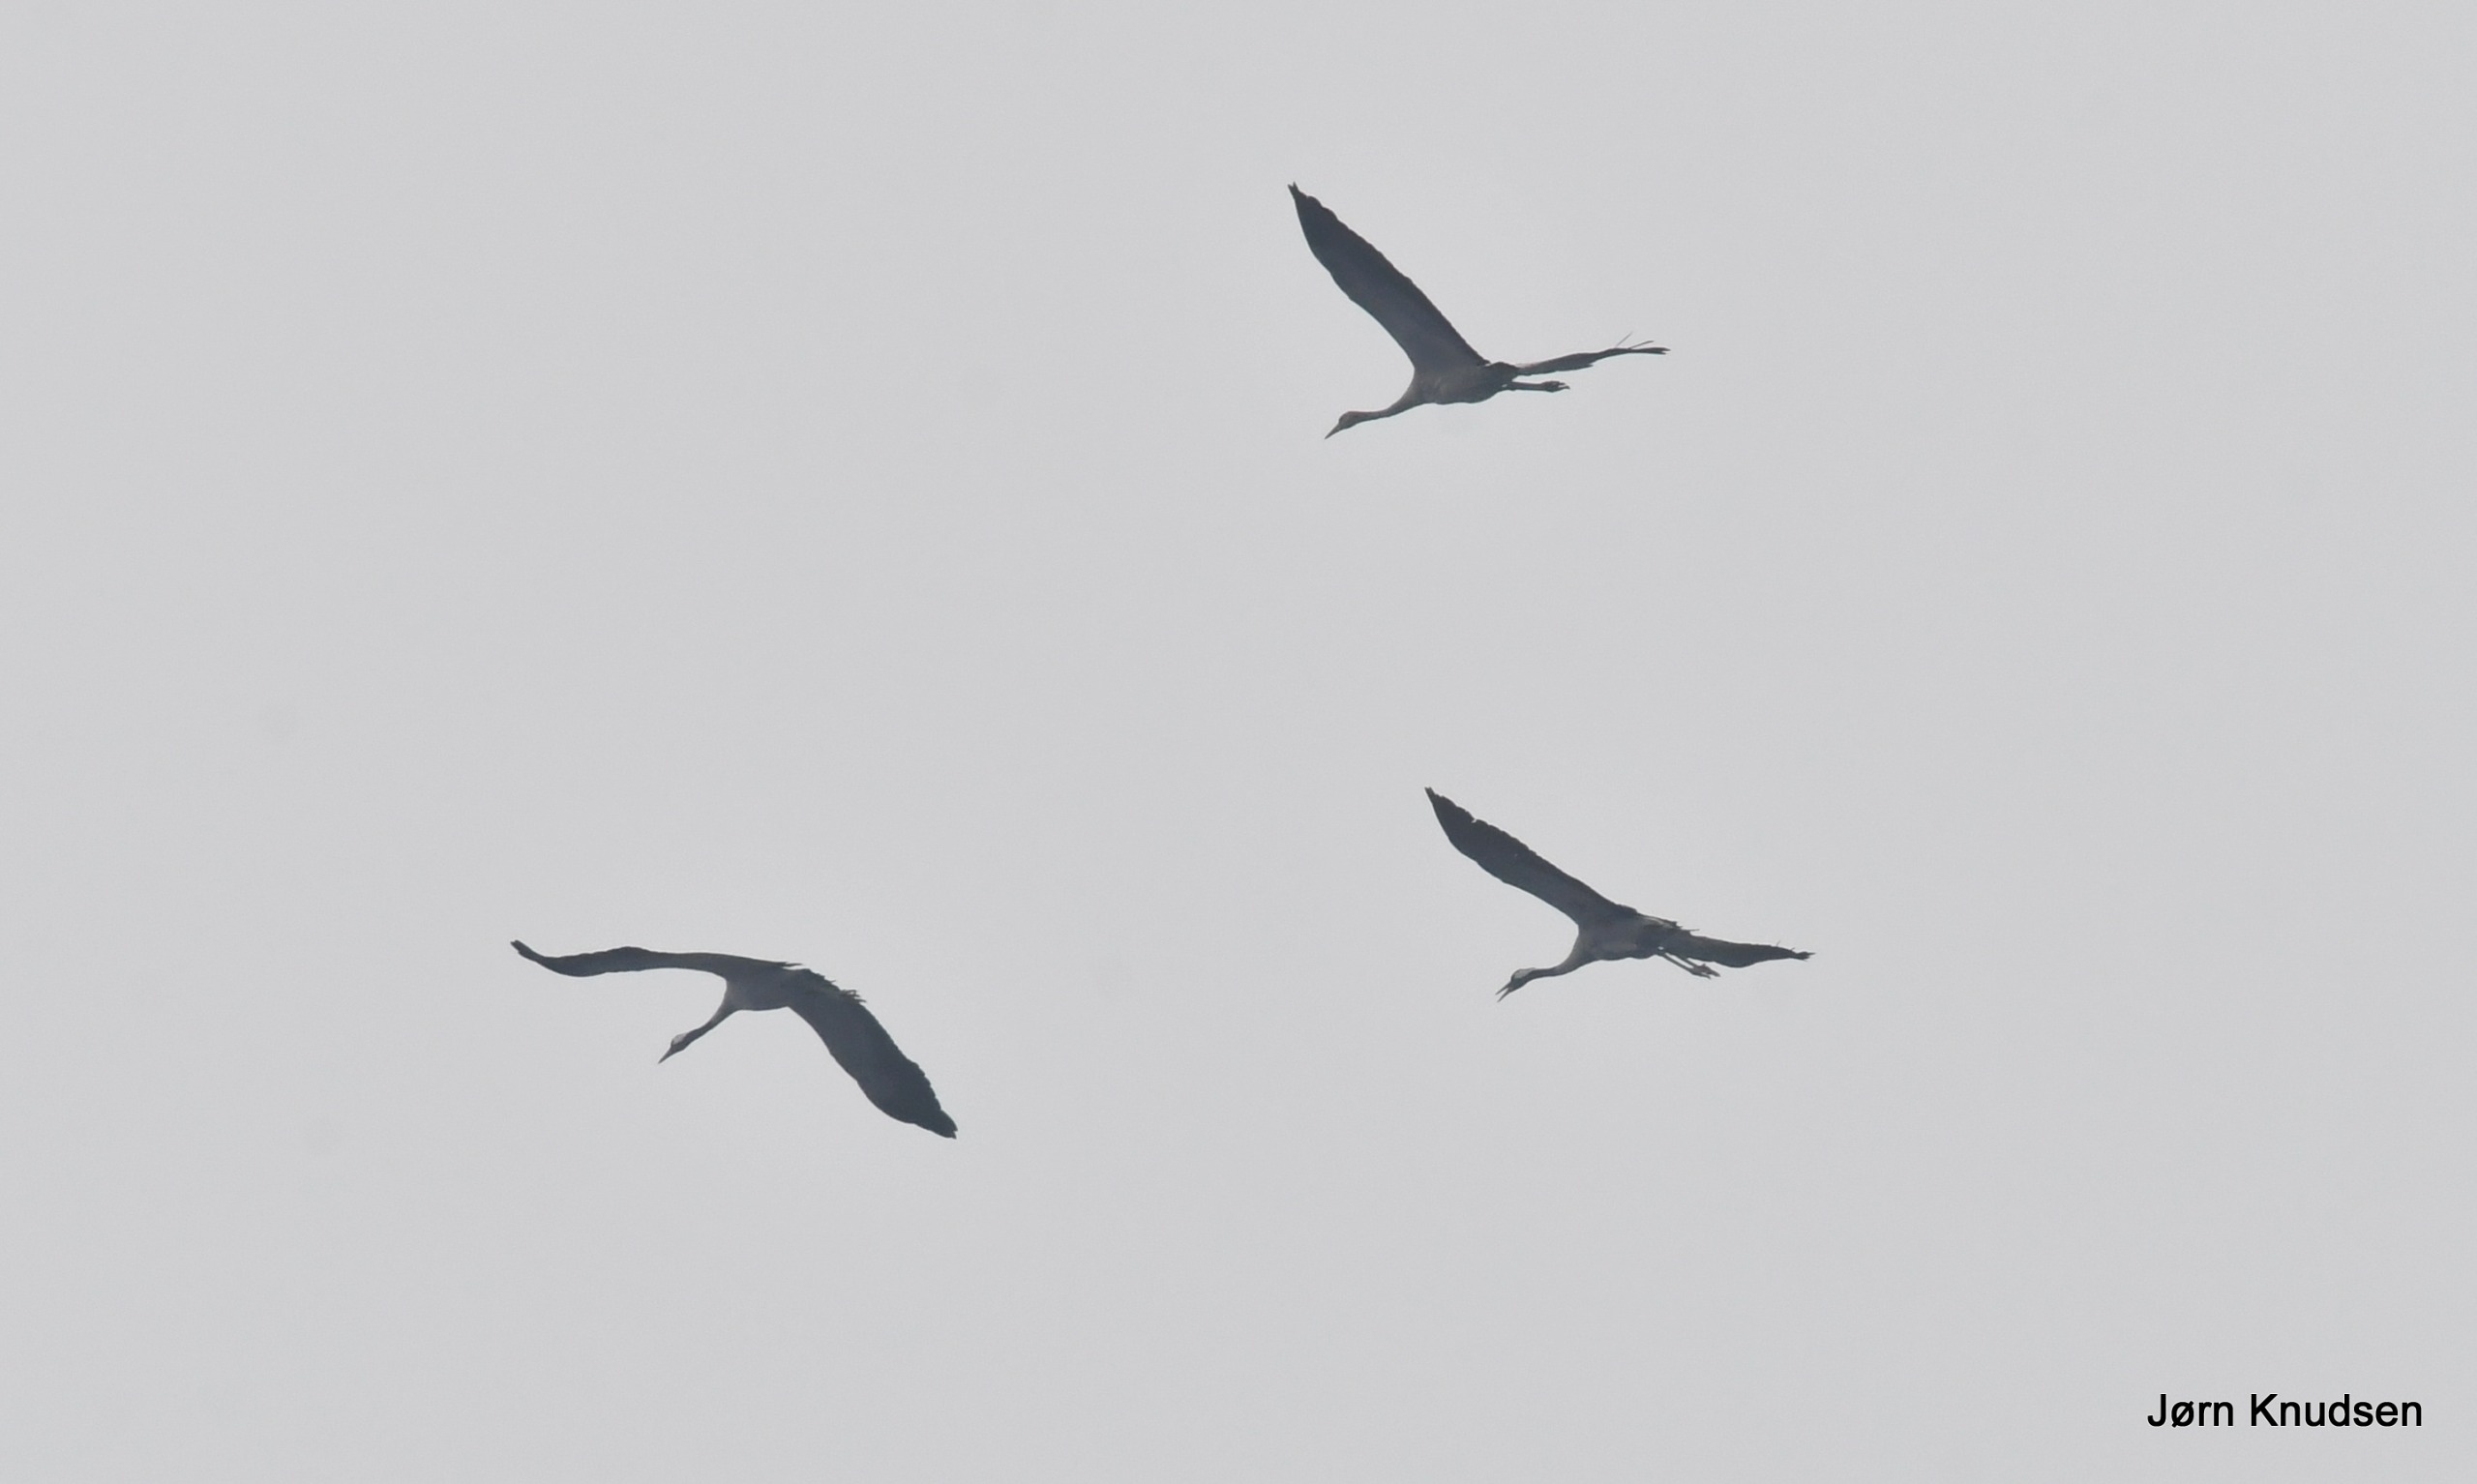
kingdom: Animalia
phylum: Chordata
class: Aves
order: Gruiformes
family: Gruidae
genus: Grus
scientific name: Grus grus
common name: Trane
